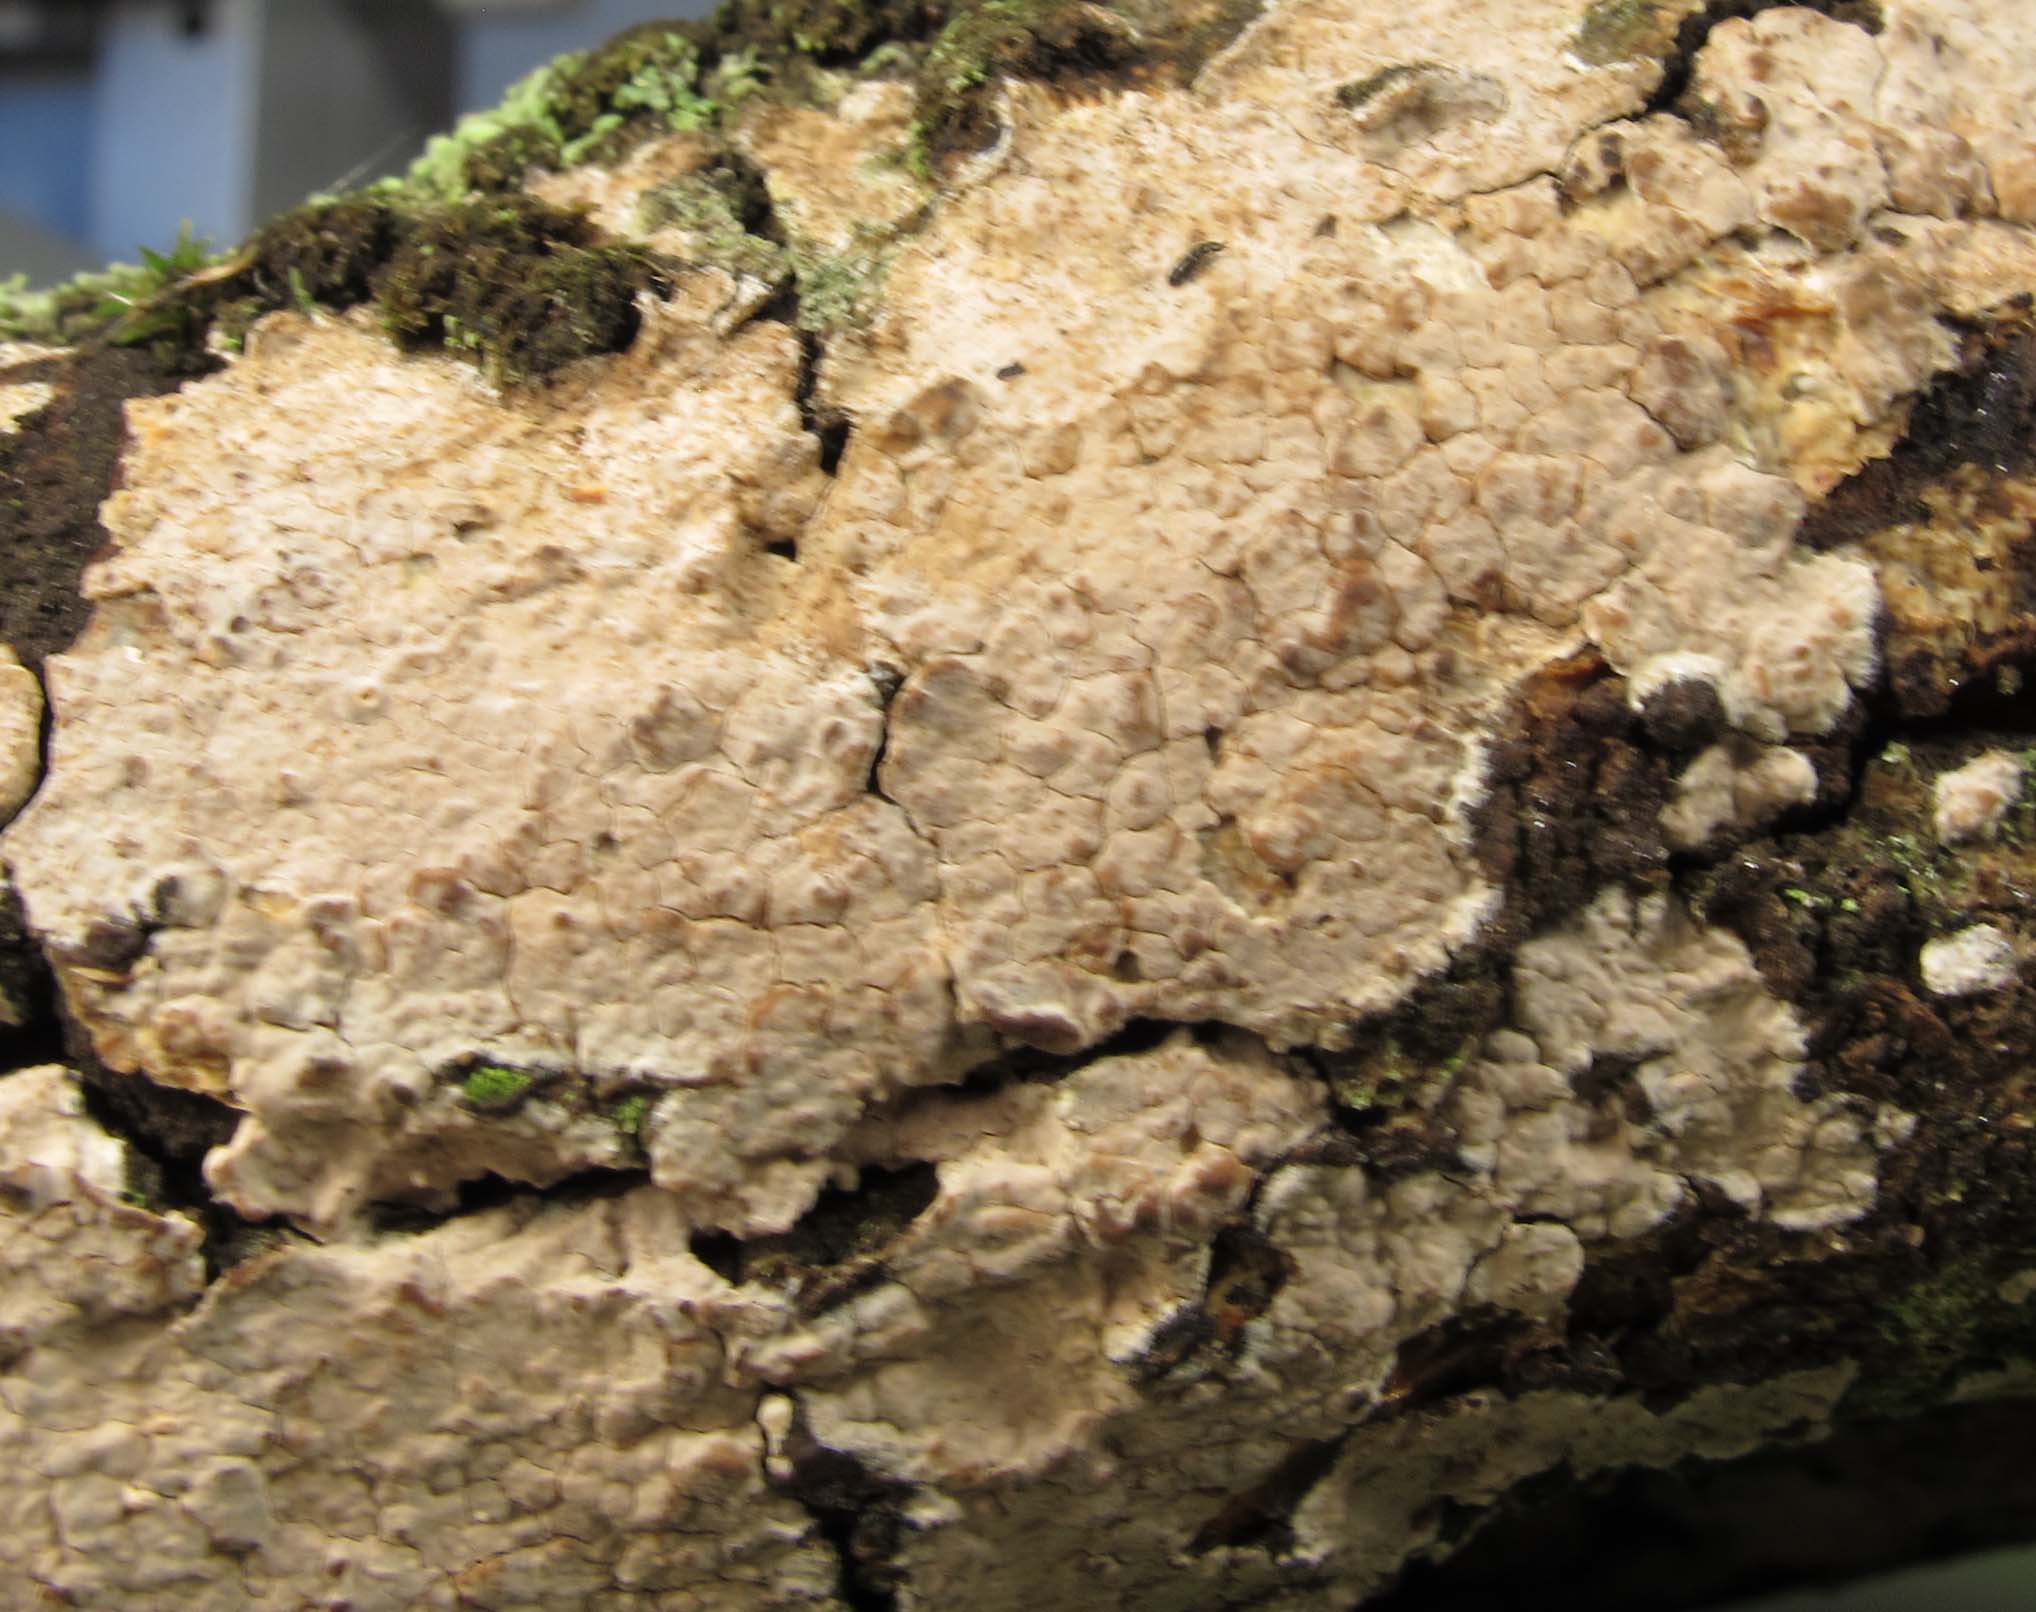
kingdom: Fungi
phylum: Basidiomycota
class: Agaricomycetes
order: Polyporales
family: Meruliaceae
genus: Mycoacia
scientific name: Mycoacia livida
